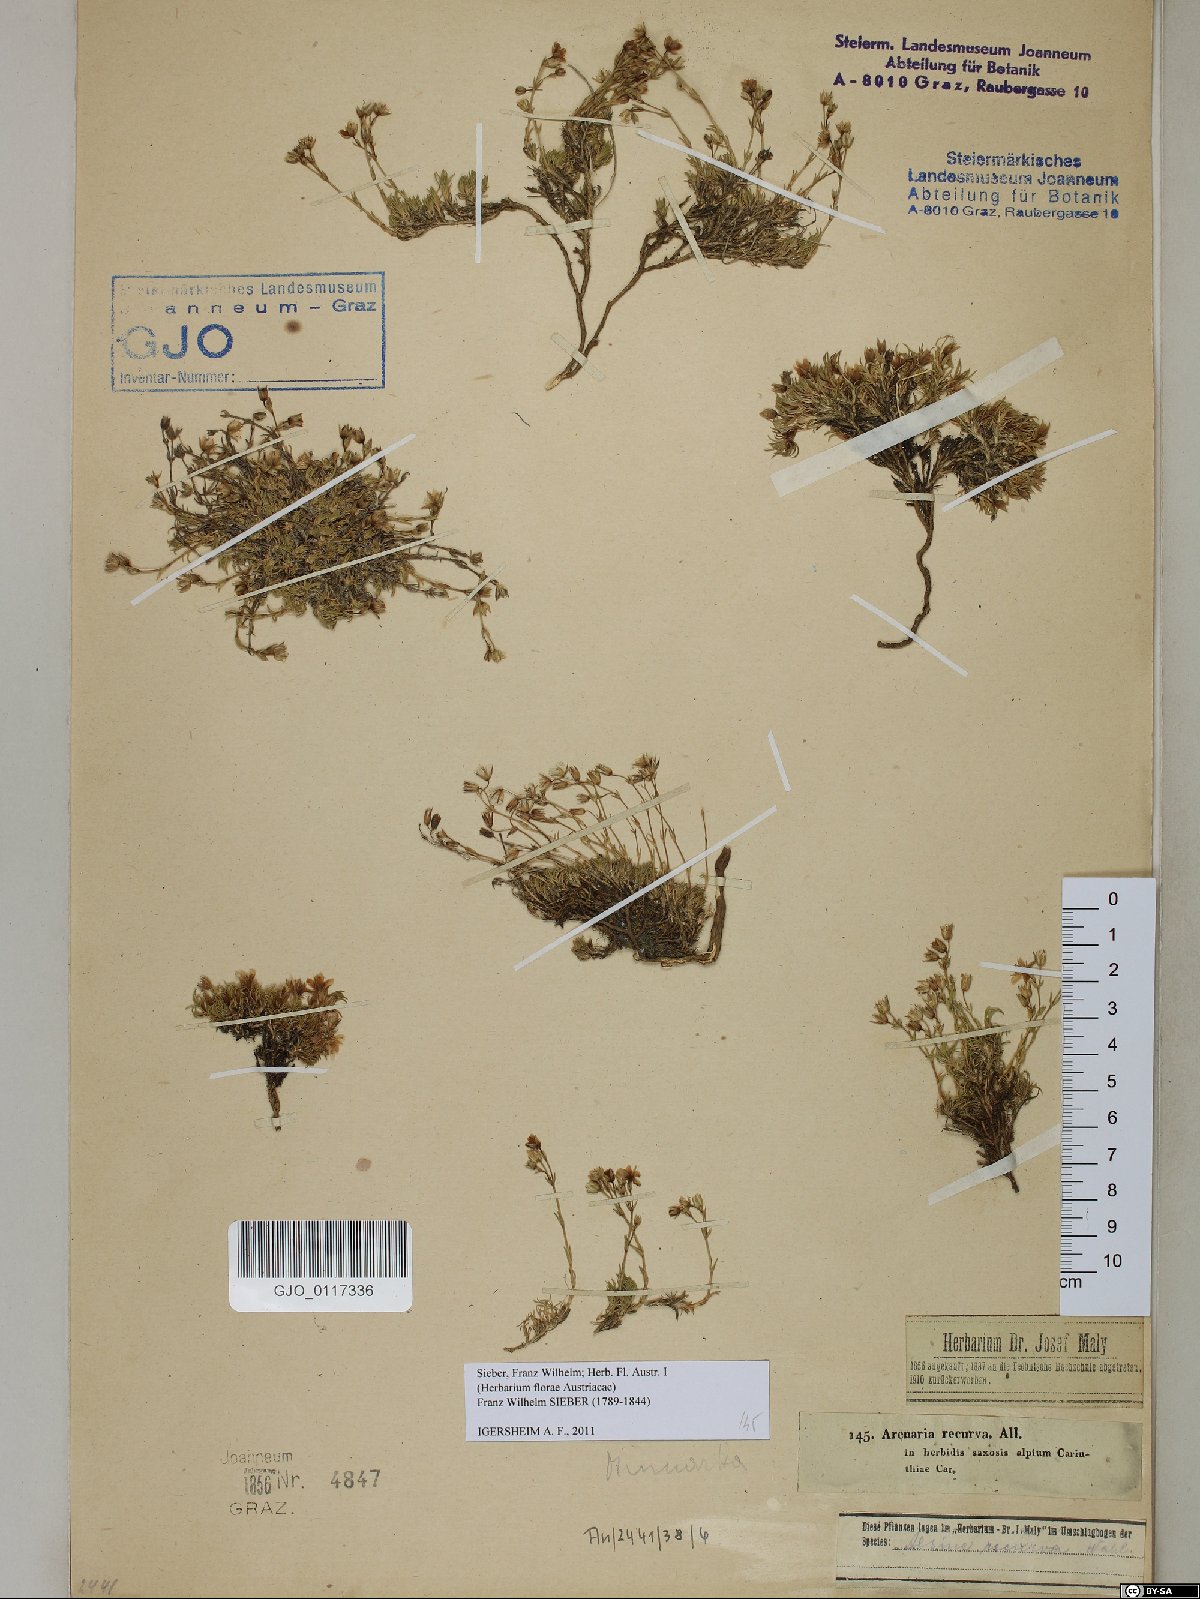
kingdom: Plantae
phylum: Tracheophyta
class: Magnoliopsida
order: Caryophyllales
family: Caryophyllaceae
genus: Minuartia
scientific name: Minuartia recurva
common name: Recurved sandwort
